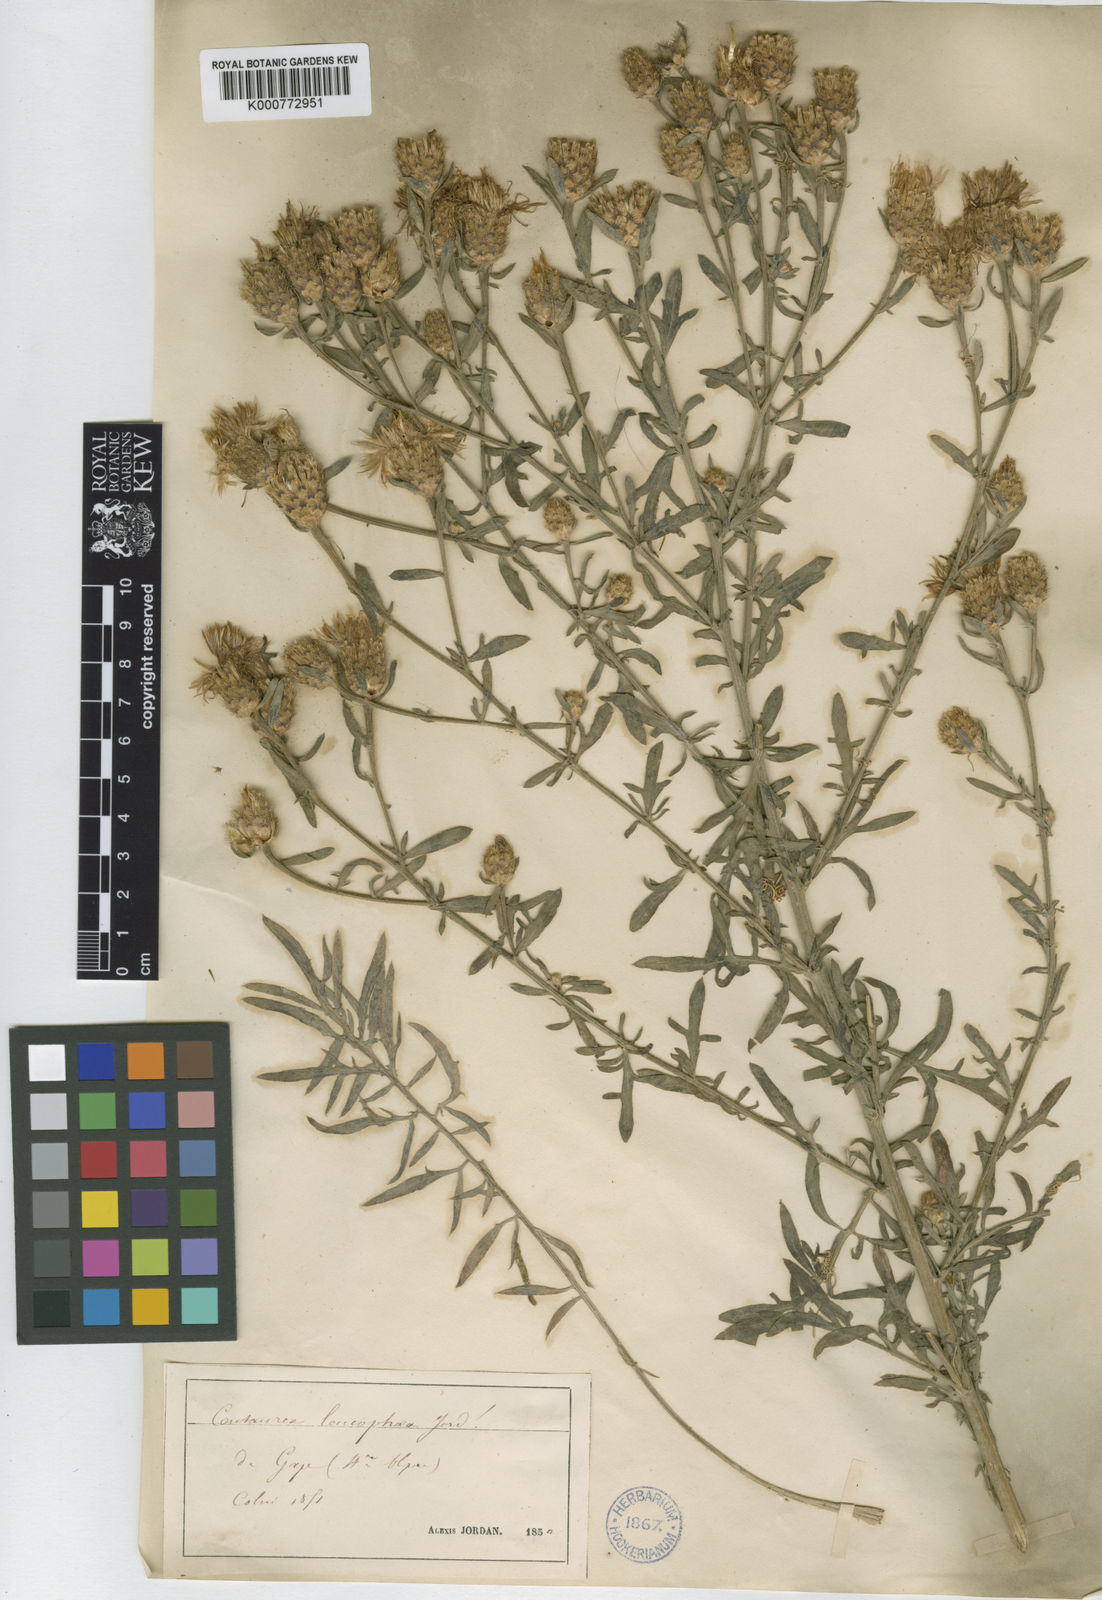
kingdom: Plantae
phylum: Tracheophyta
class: Magnoliopsida
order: Asterales
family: Asteraceae
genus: Centaurea
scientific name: Centaurea leucophaea
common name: Whitish-leaved knapweed
